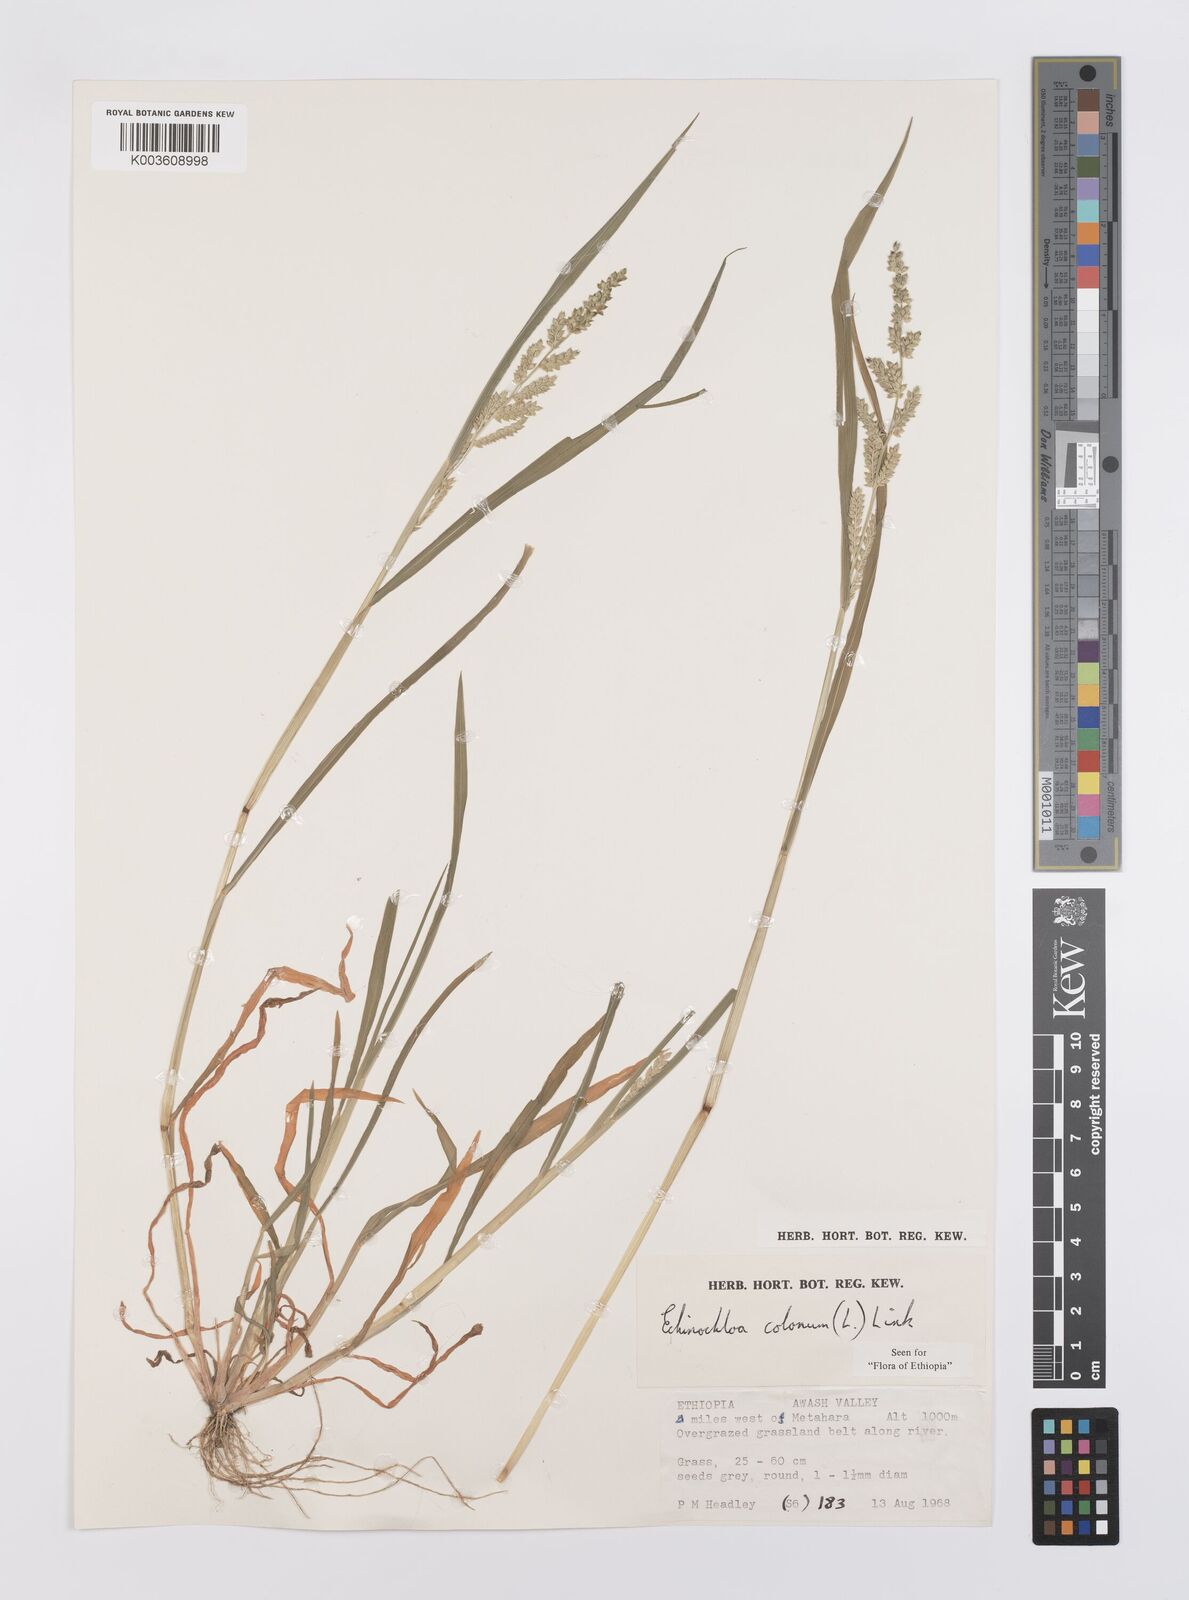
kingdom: Plantae
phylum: Tracheophyta
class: Liliopsida
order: Poales
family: Poaceae
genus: Echinochloa
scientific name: Echinochloa colonum
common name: Jungle rice
